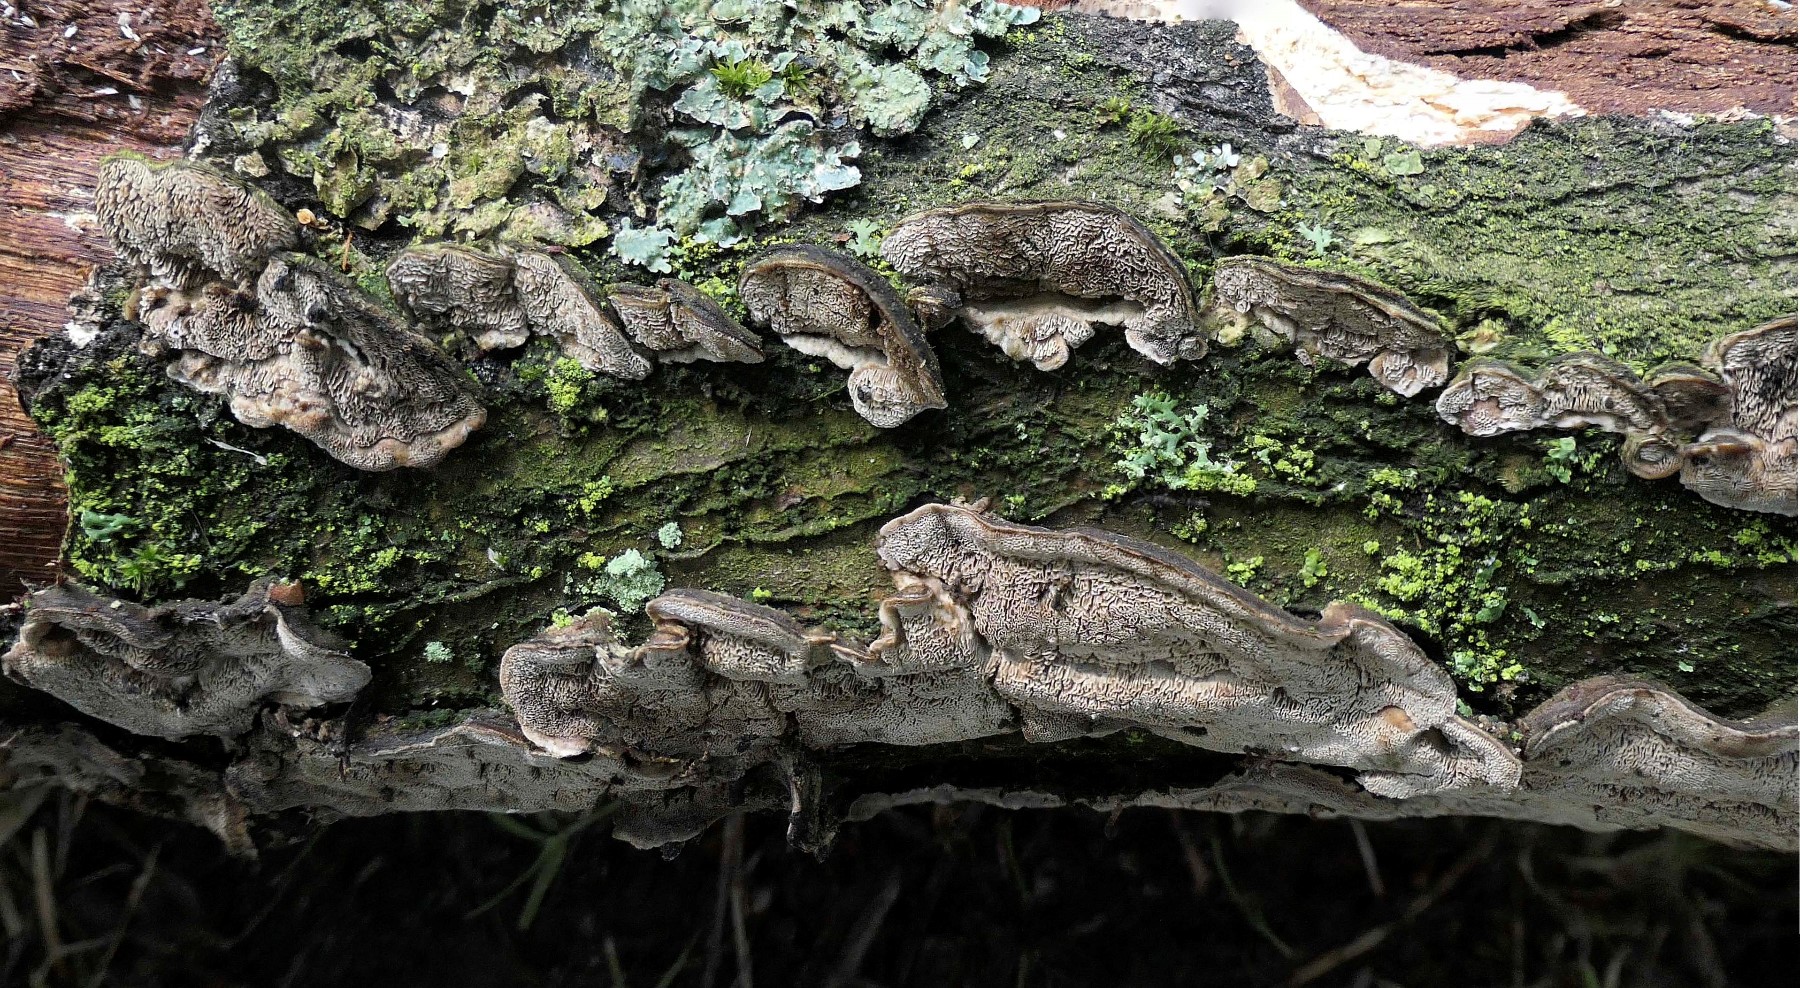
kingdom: Fungi
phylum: Basidiomycota
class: Agaricomycetes
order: Polyporales
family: Cerrenaceae
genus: Cerrena
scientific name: Cerrena unicolor
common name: ensfarvet læderporesvamp
